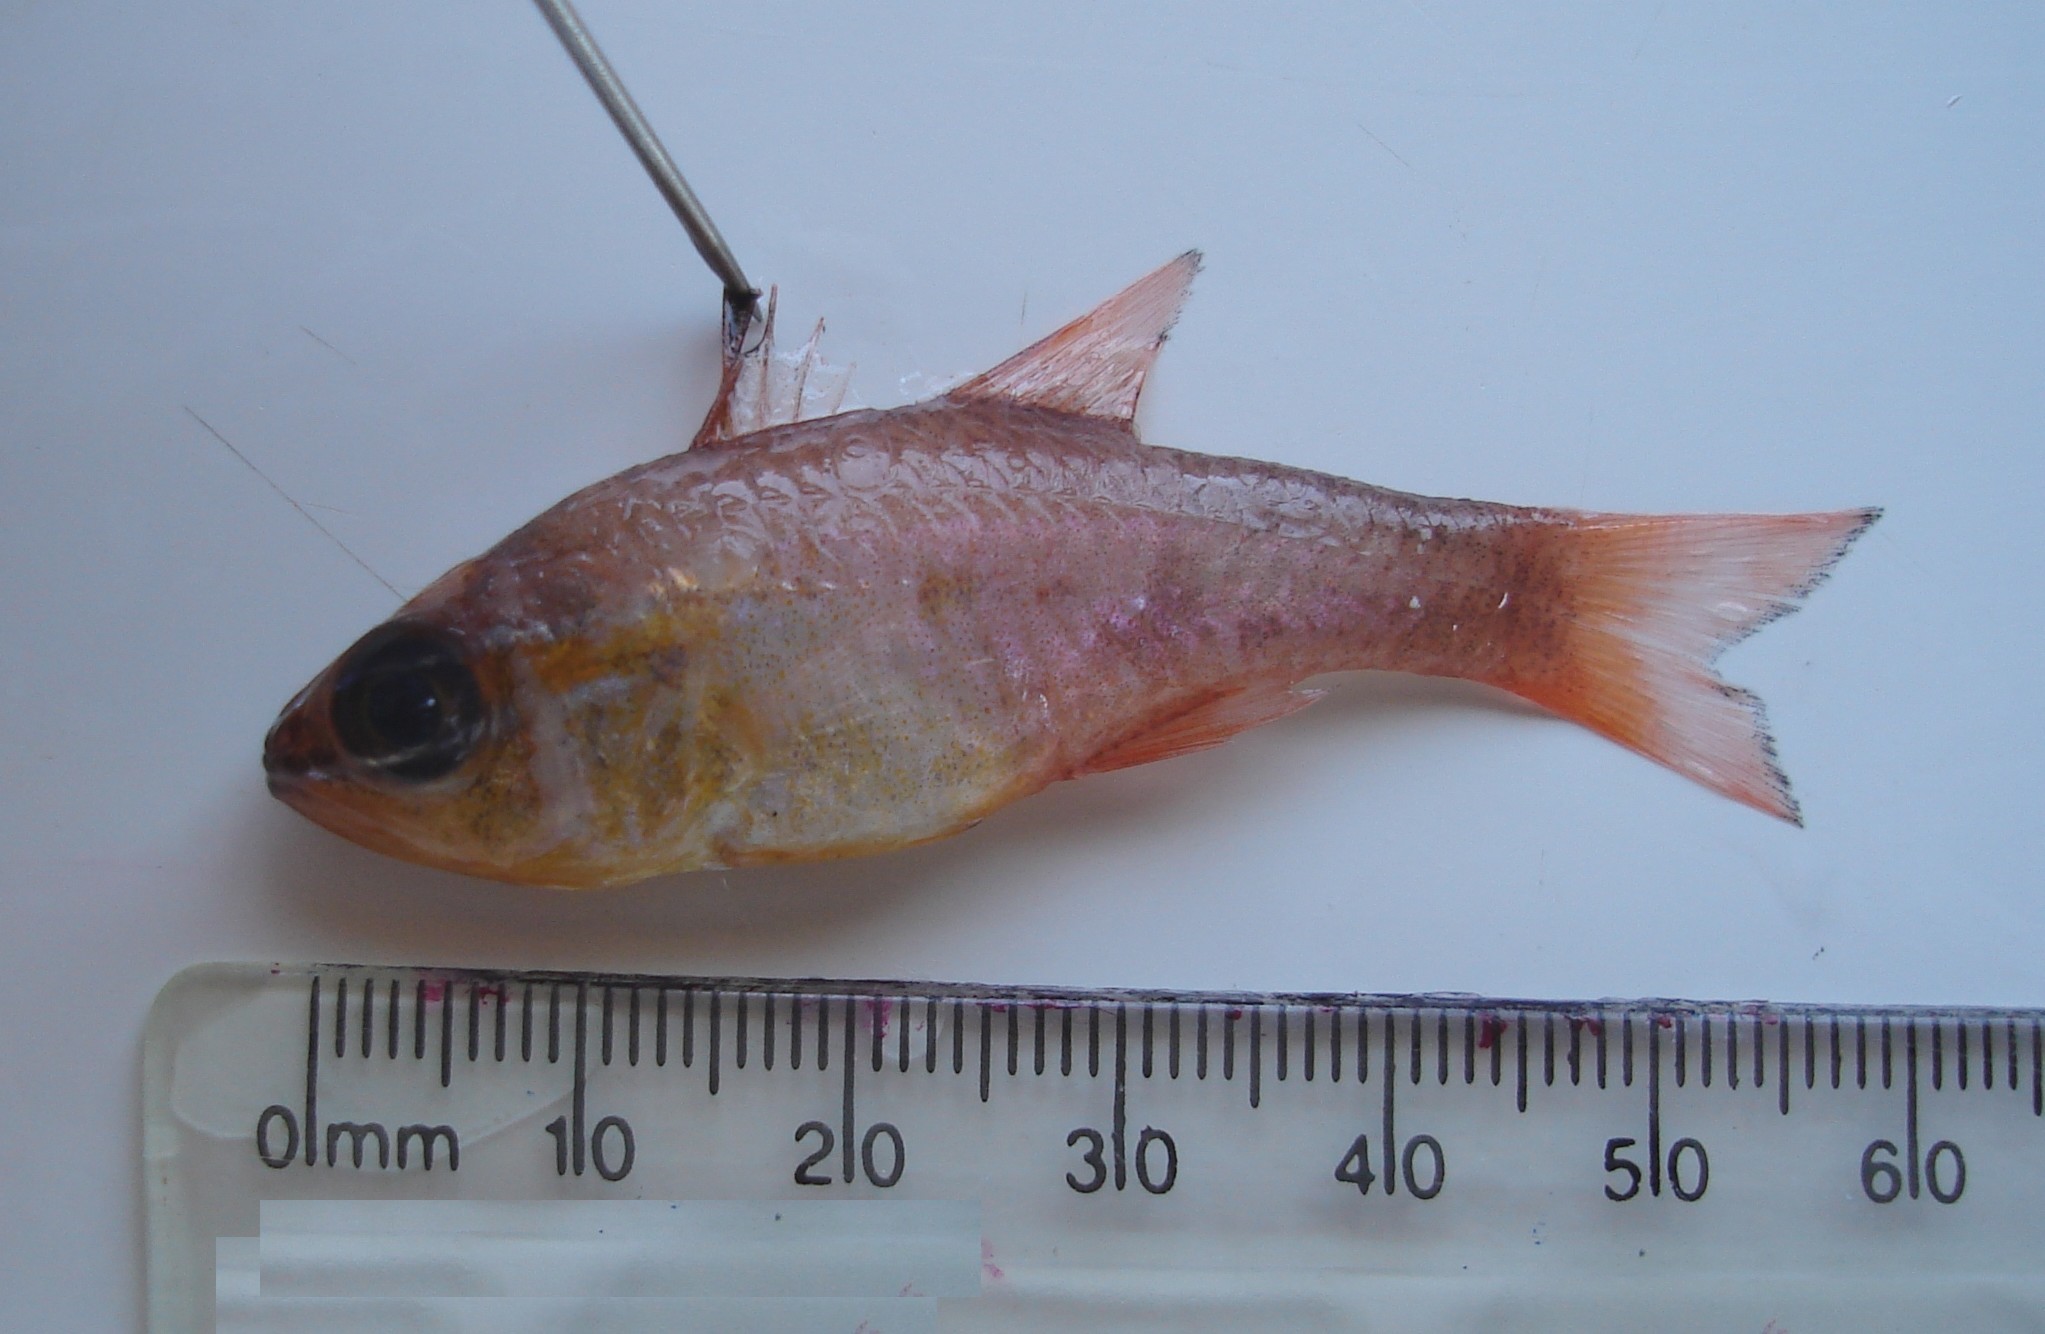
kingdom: Animalia
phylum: Chordata
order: Perciformes
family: Apogonidae
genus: Ostorhinchus
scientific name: Ostorhinchus apogonoides
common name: Goldbelly cardinalfish
